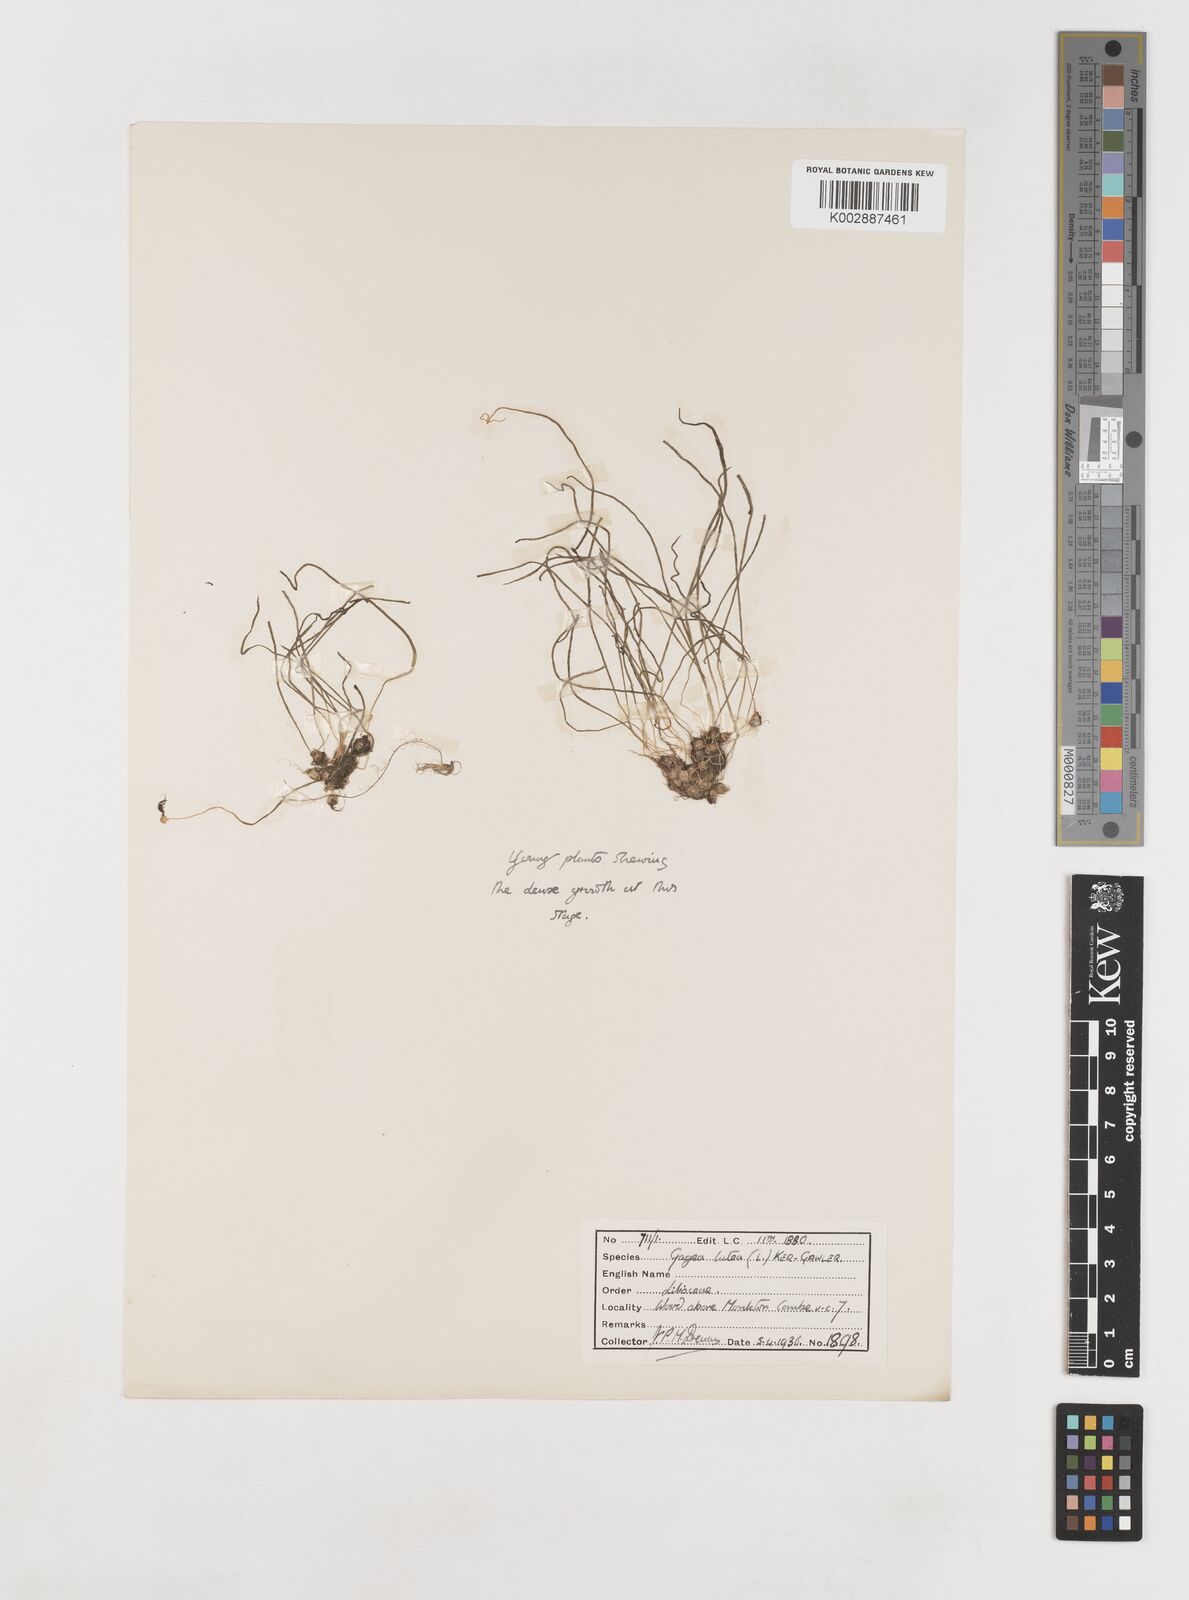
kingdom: Plantae
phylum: Tracheophyta
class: Liliopsida
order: Liliales
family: Liliaceae
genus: Gagea
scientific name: Gagea lutea
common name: Yellow star-of-bethlehem
